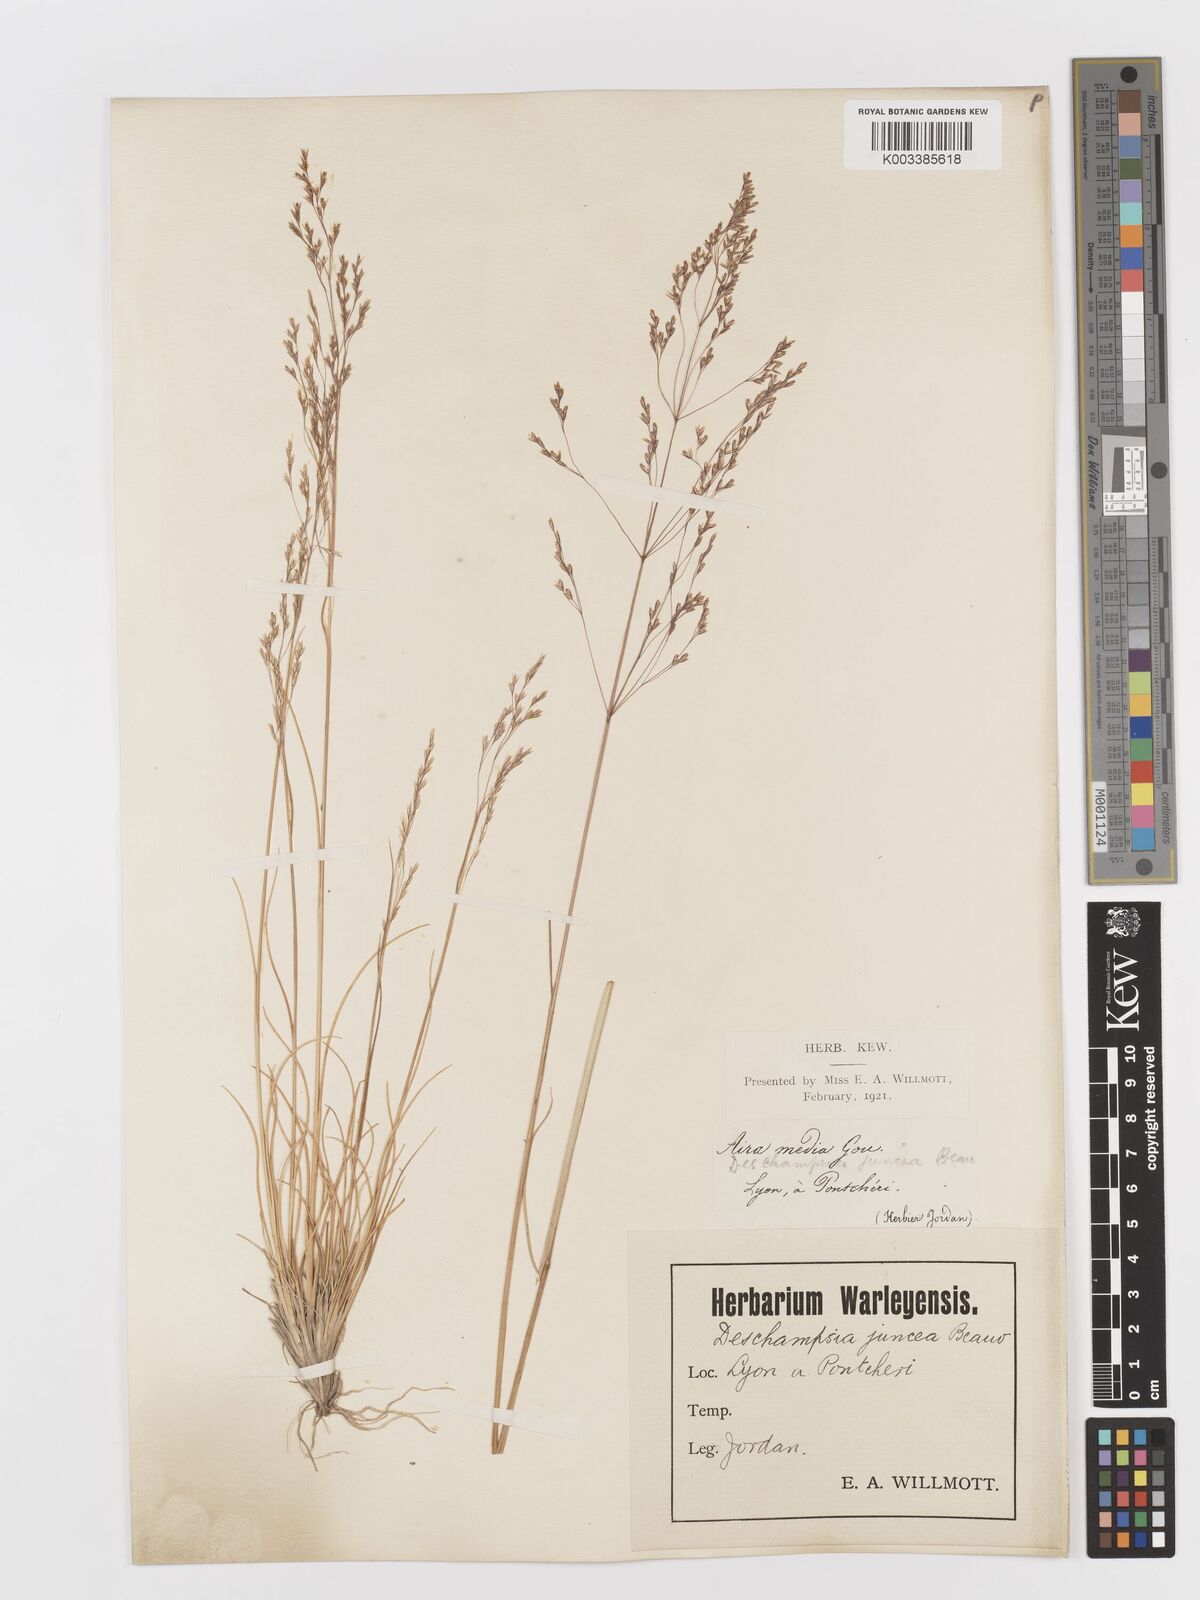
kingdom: Plantae
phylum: Tracheophyta
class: Liliopsida
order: Poales
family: Poaceae
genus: Deschampsia
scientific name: Deschampsia media
